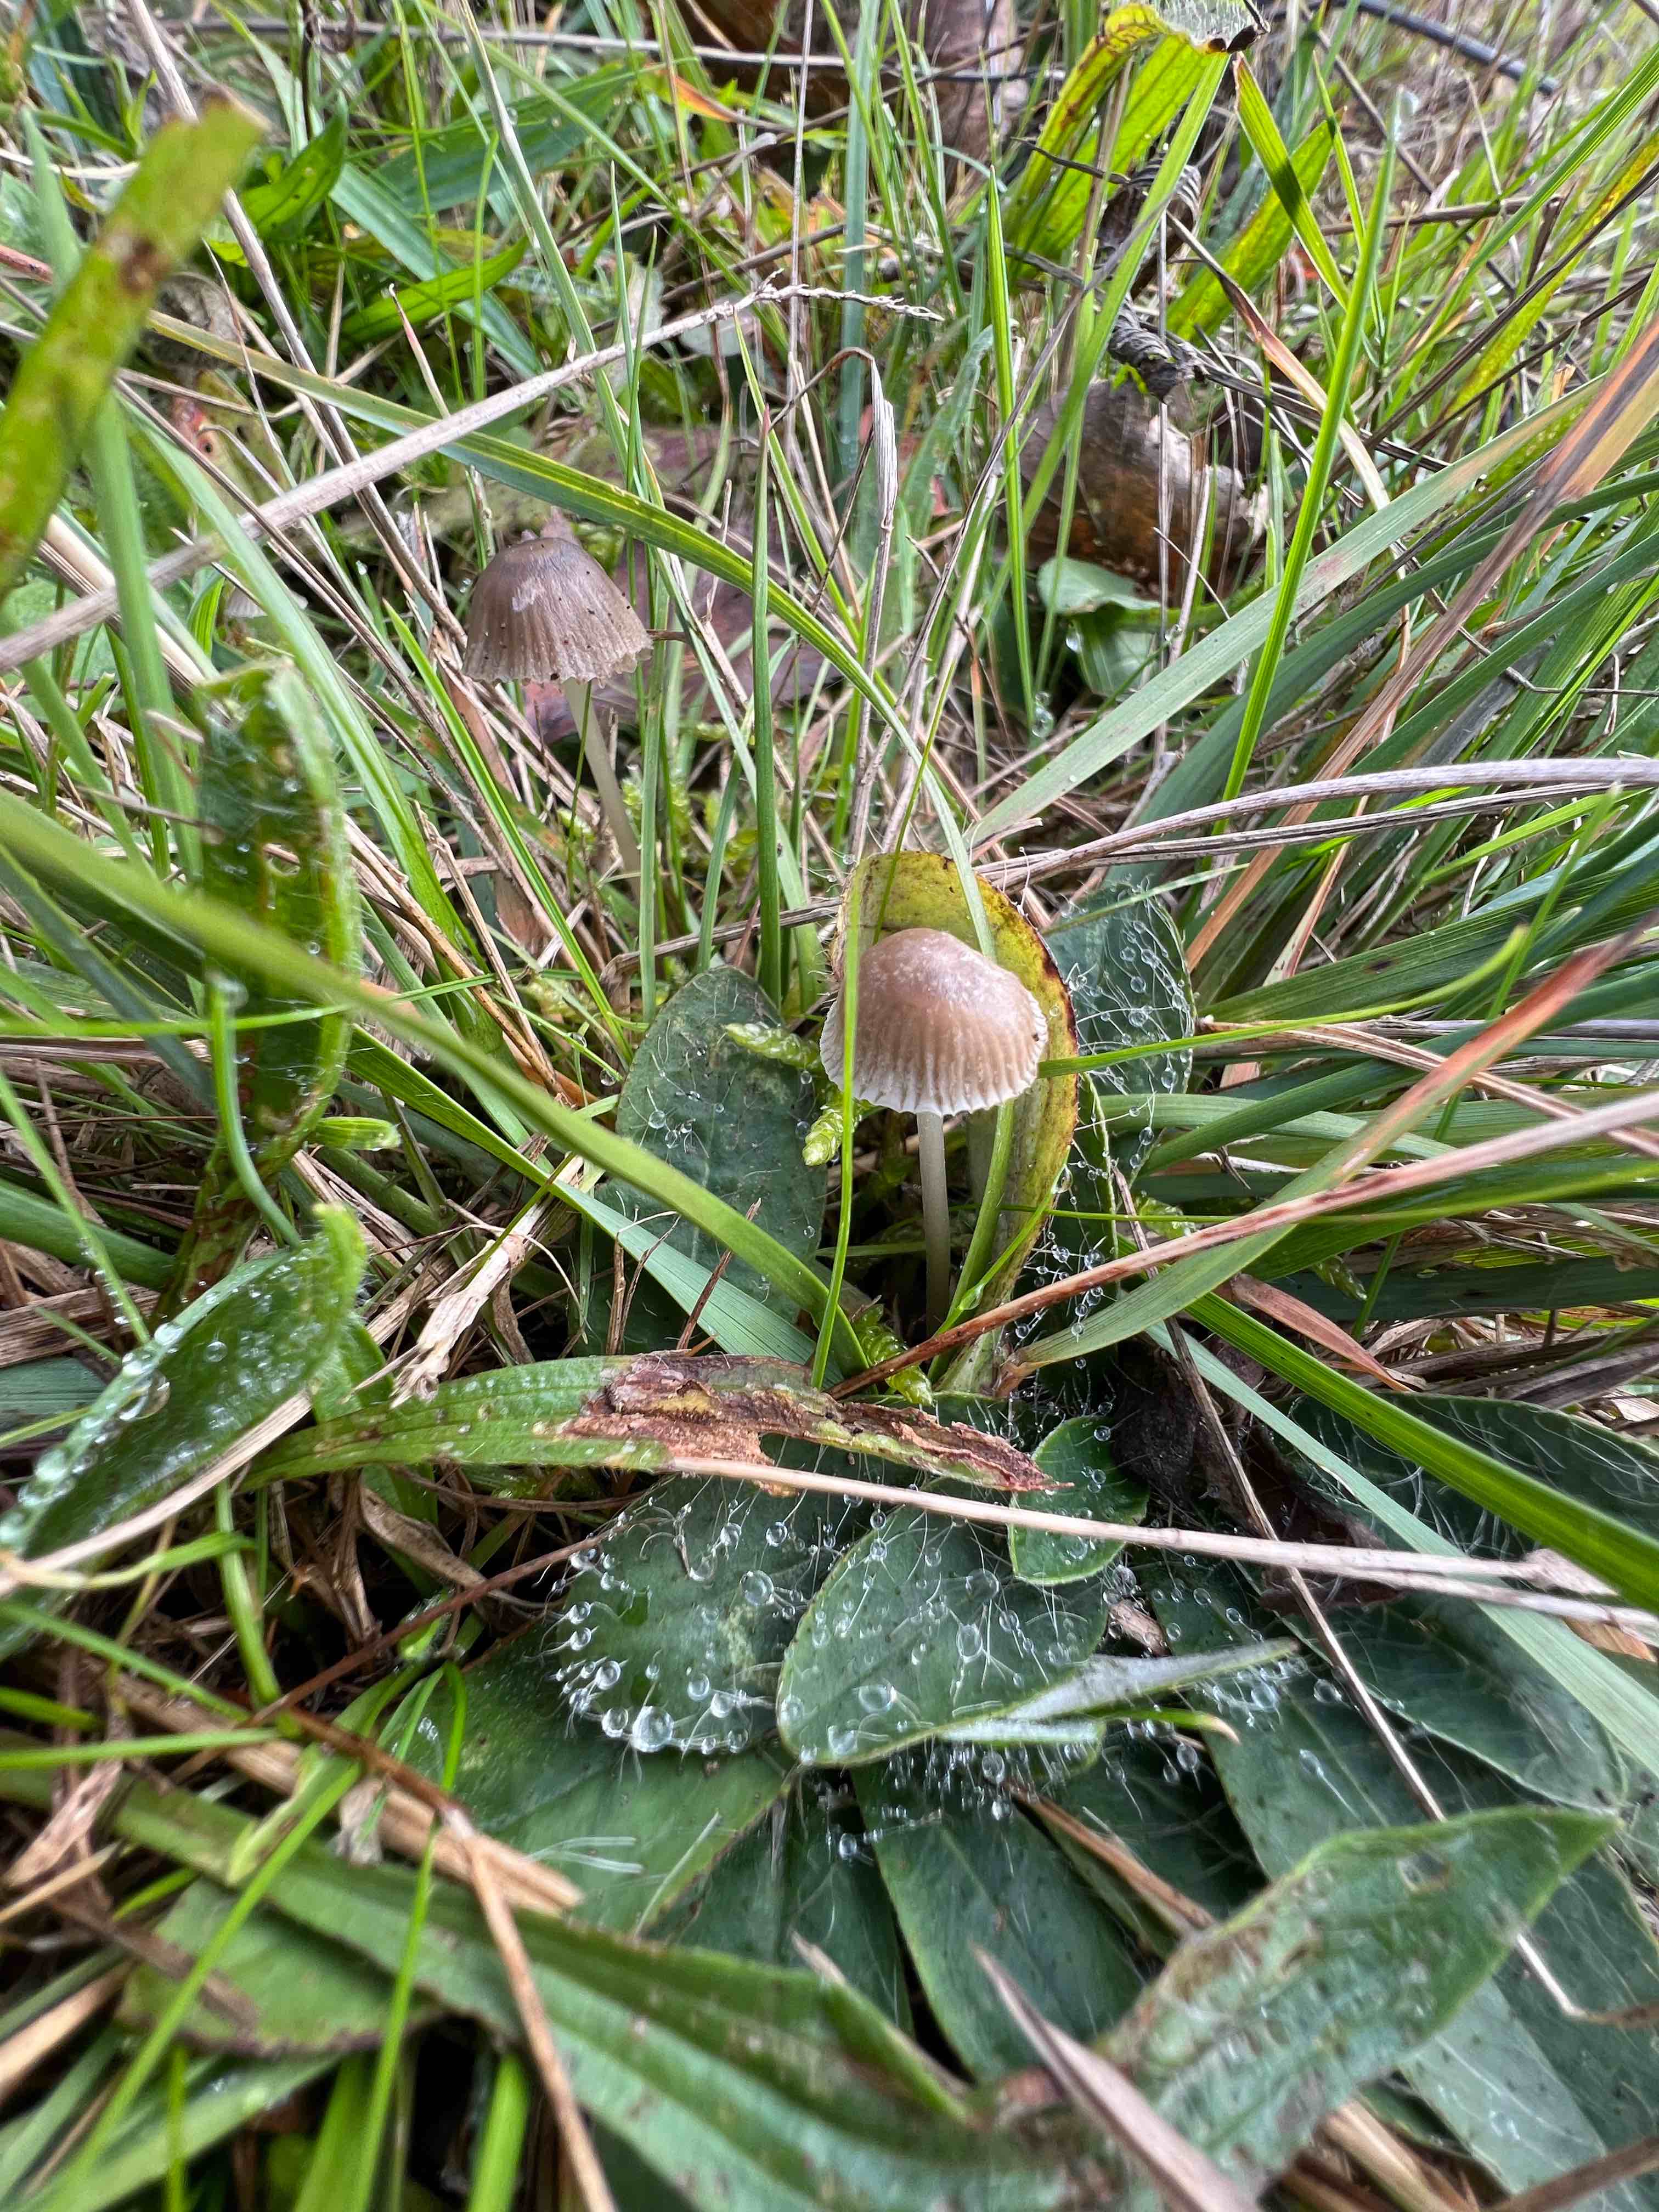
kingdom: Fungi
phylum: Basidiomycota
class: Agaricomycetes
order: Agaricales
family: Mycenaceae
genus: Mycena
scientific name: Mycena aetites
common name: plæne-huesvamp
